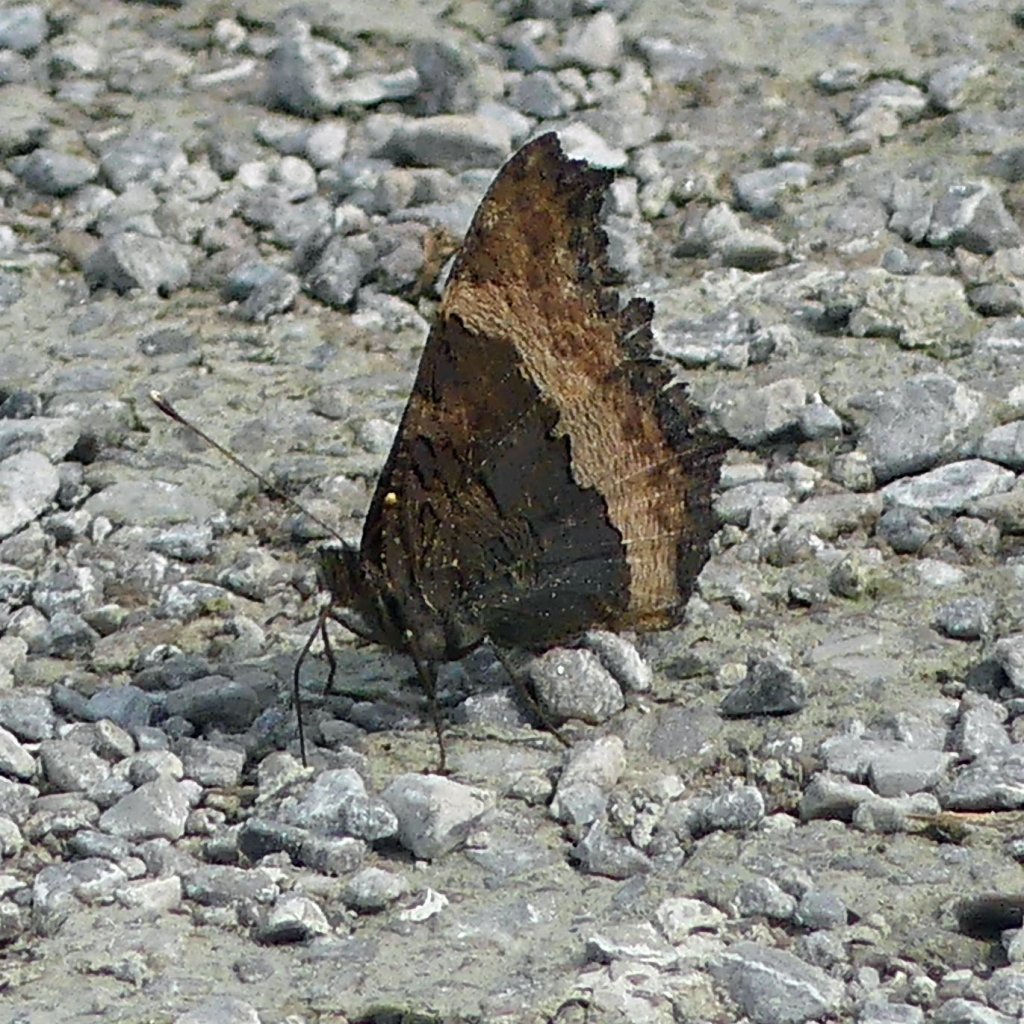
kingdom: Animalia
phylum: Arthropoda
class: Insecta
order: Lepidoptera
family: Nymphalidae
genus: Aglais
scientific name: Aglais milberti
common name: Milbert's Tortoiseshell
